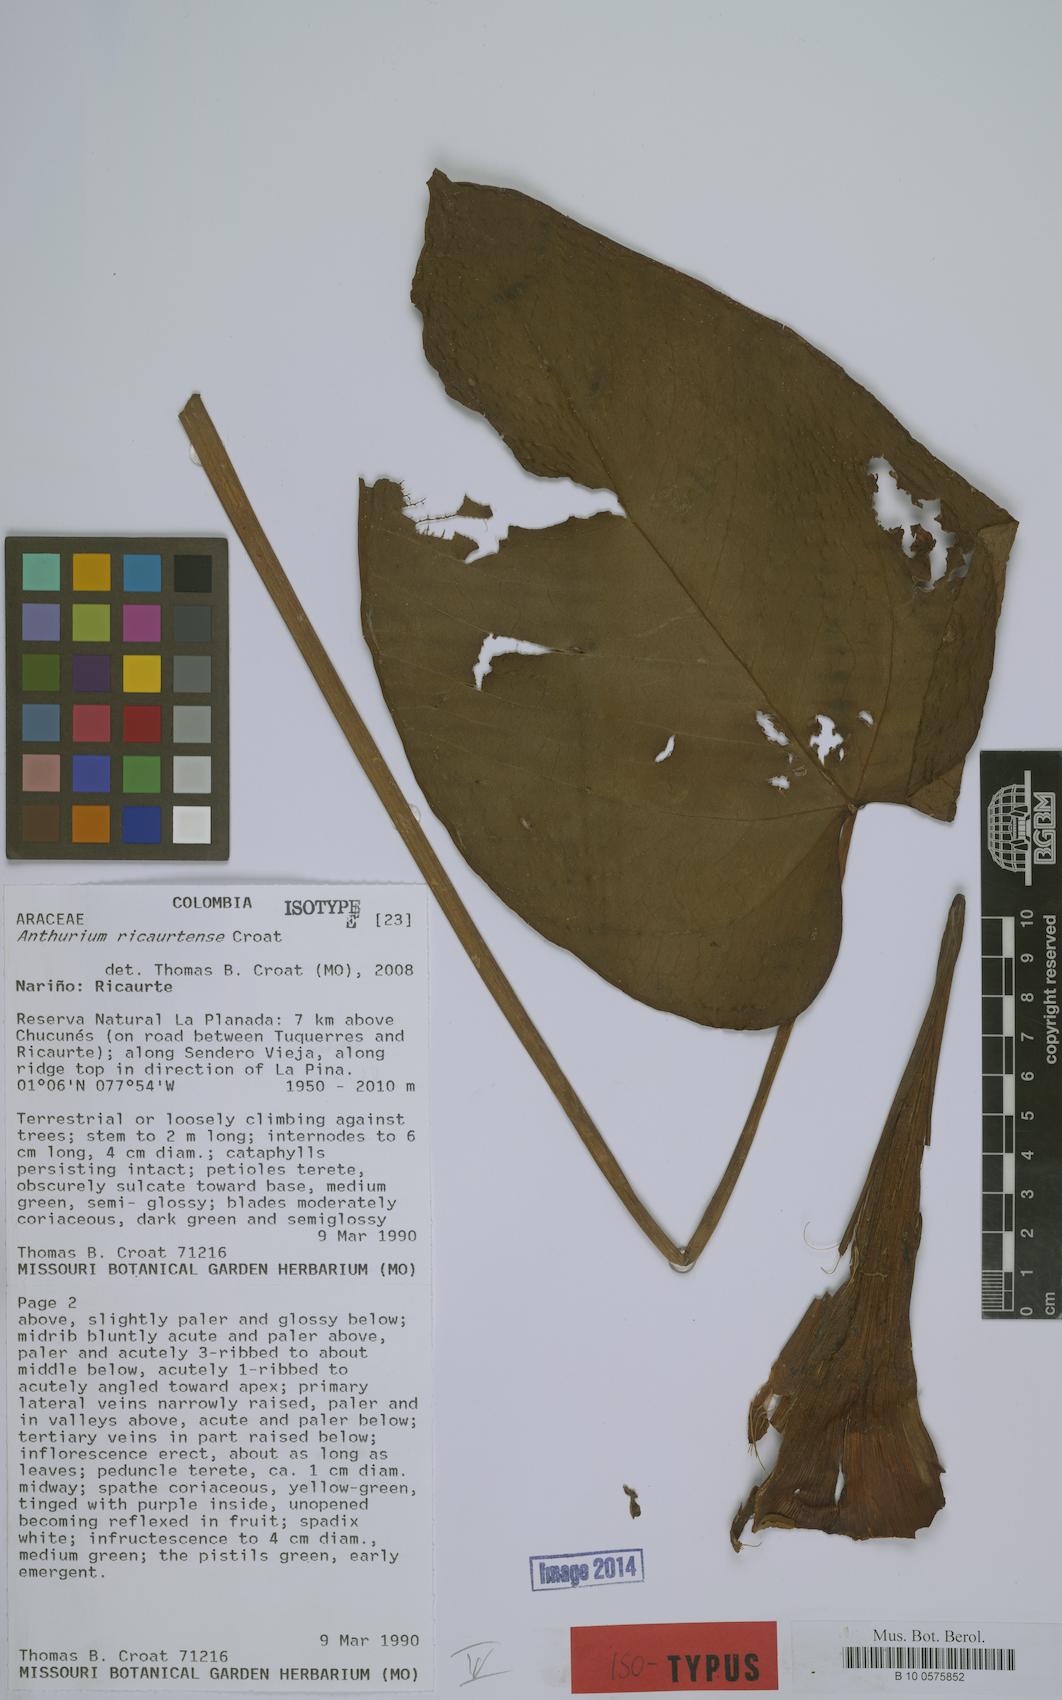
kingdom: Plantae
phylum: Tracheophyta
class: Liliopsida
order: Alismatales
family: Araceae
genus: Anthurium
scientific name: Anthurium ricaurtense
